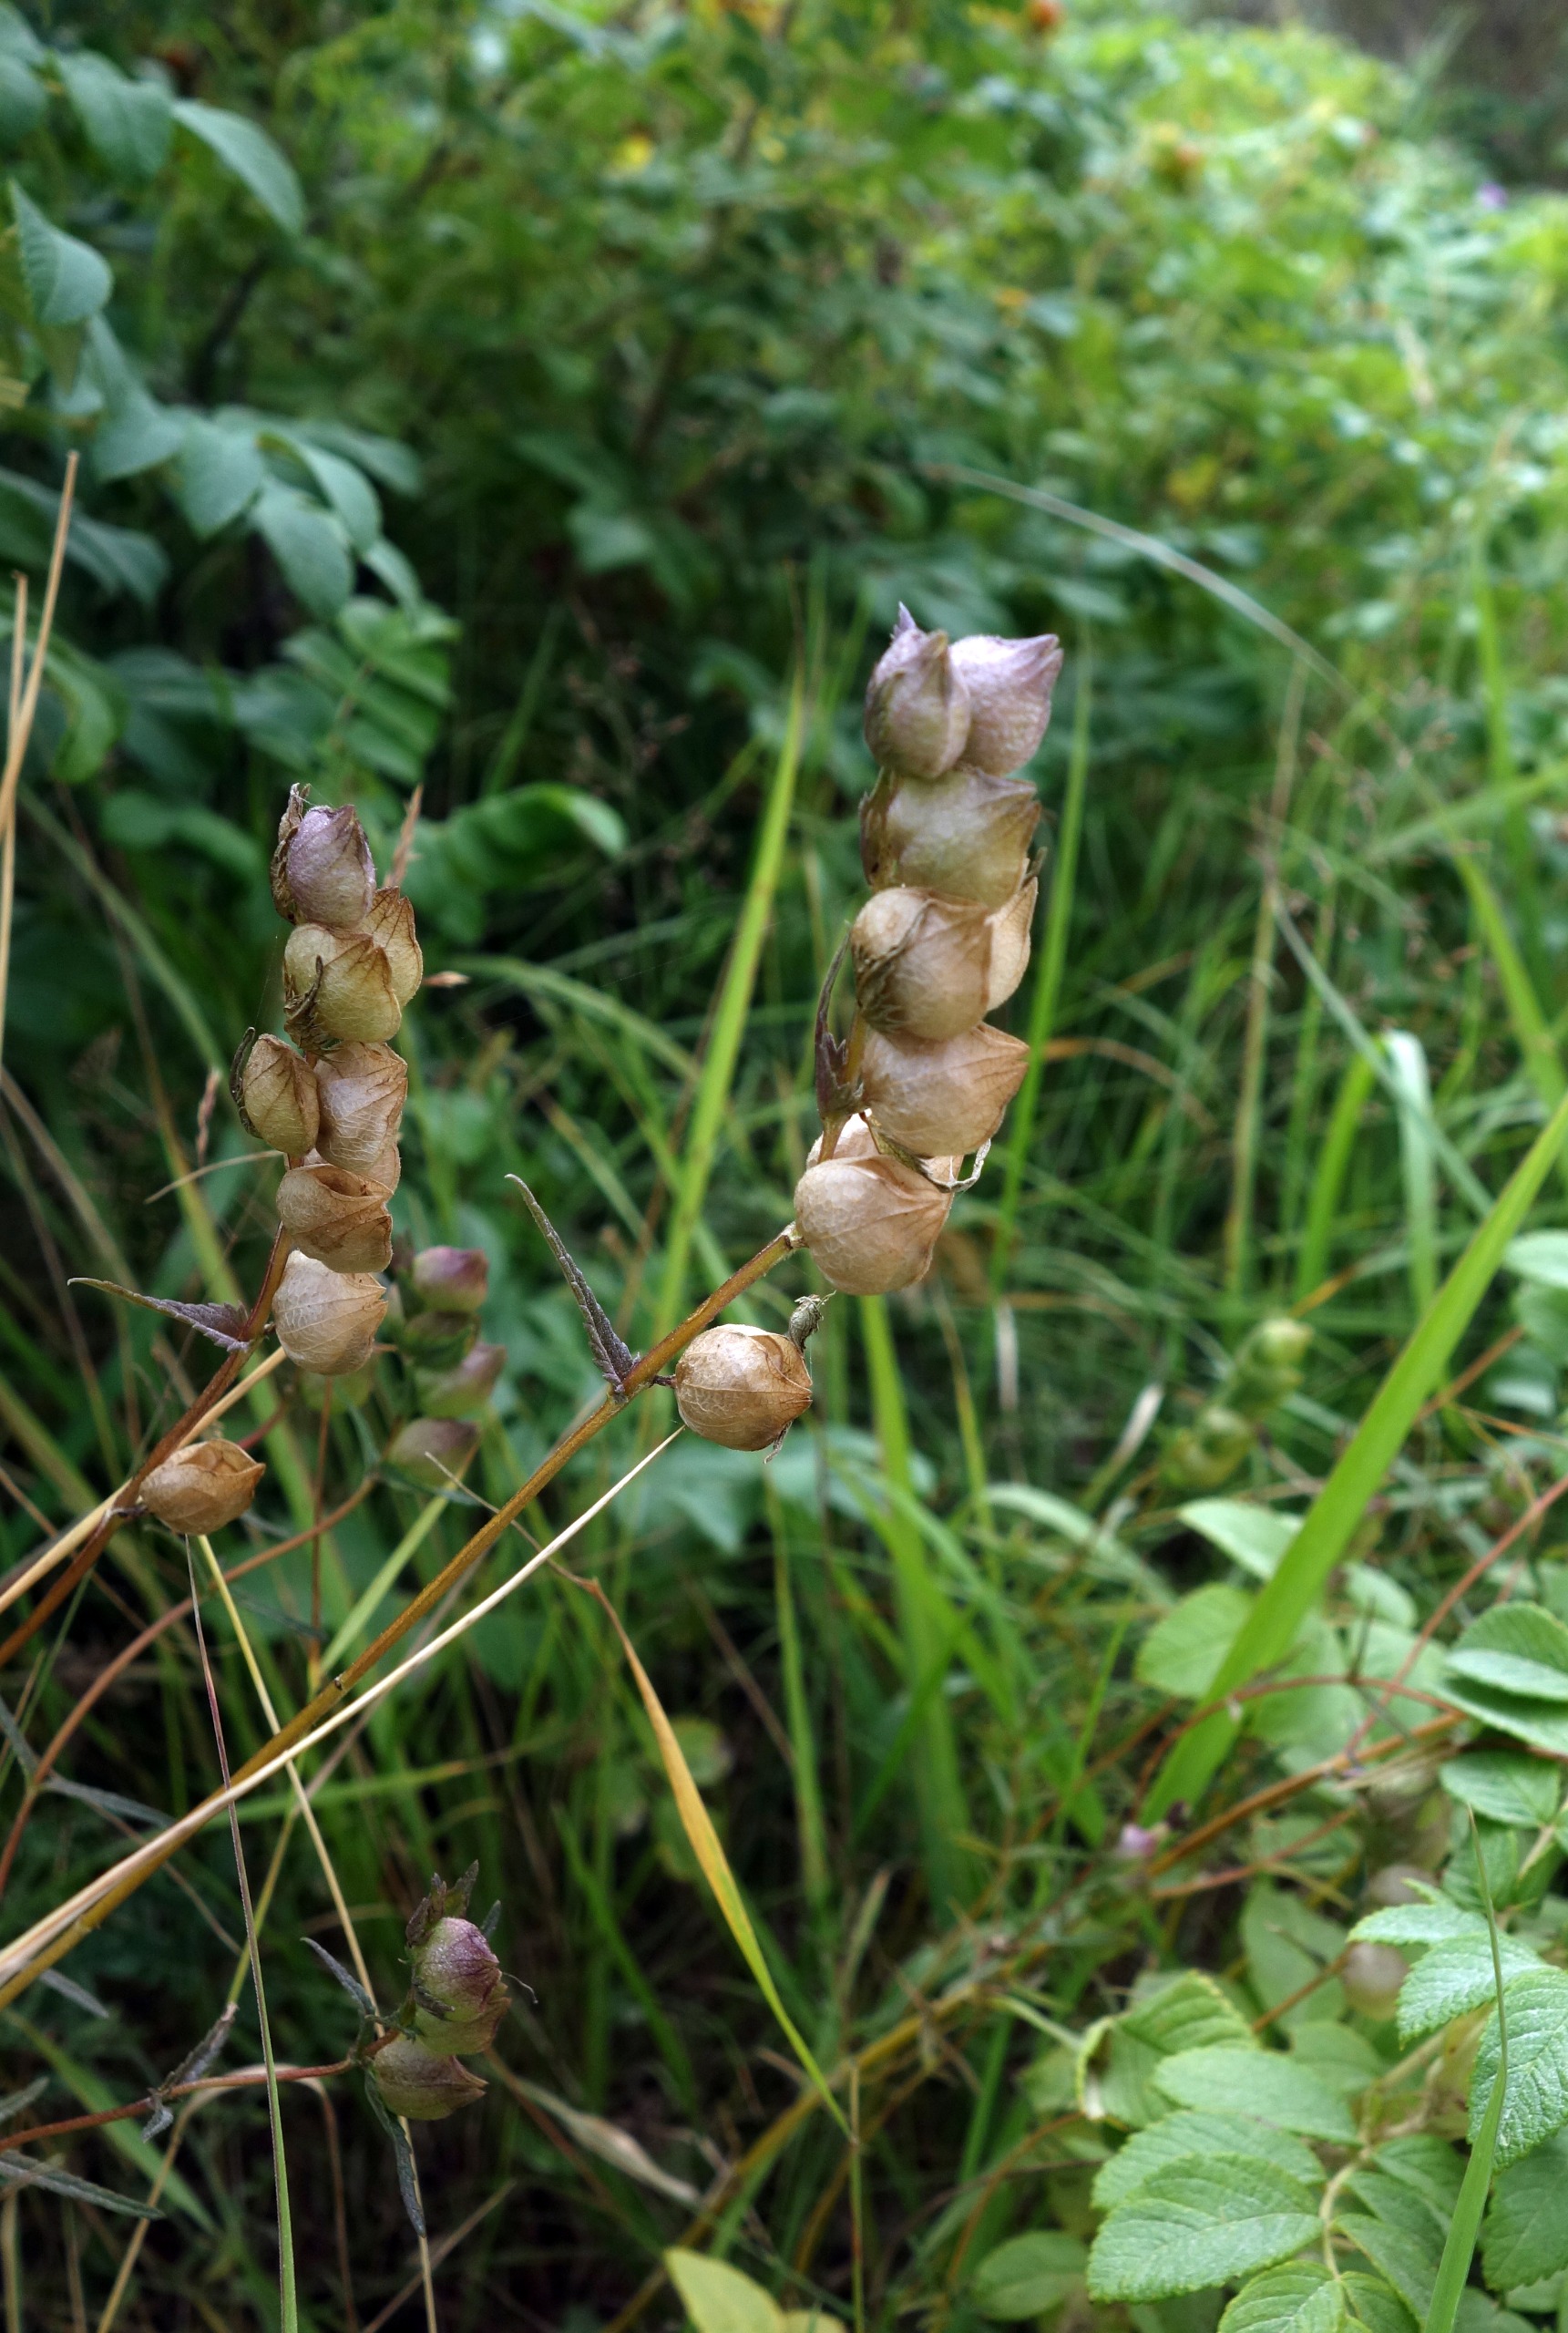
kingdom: Plantae
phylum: Tracheophyta
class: Magnoliopsida
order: Lamiales
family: Orobanchaceae
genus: Rhinanthus
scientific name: Rhinanthus
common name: Skjallerslægten
